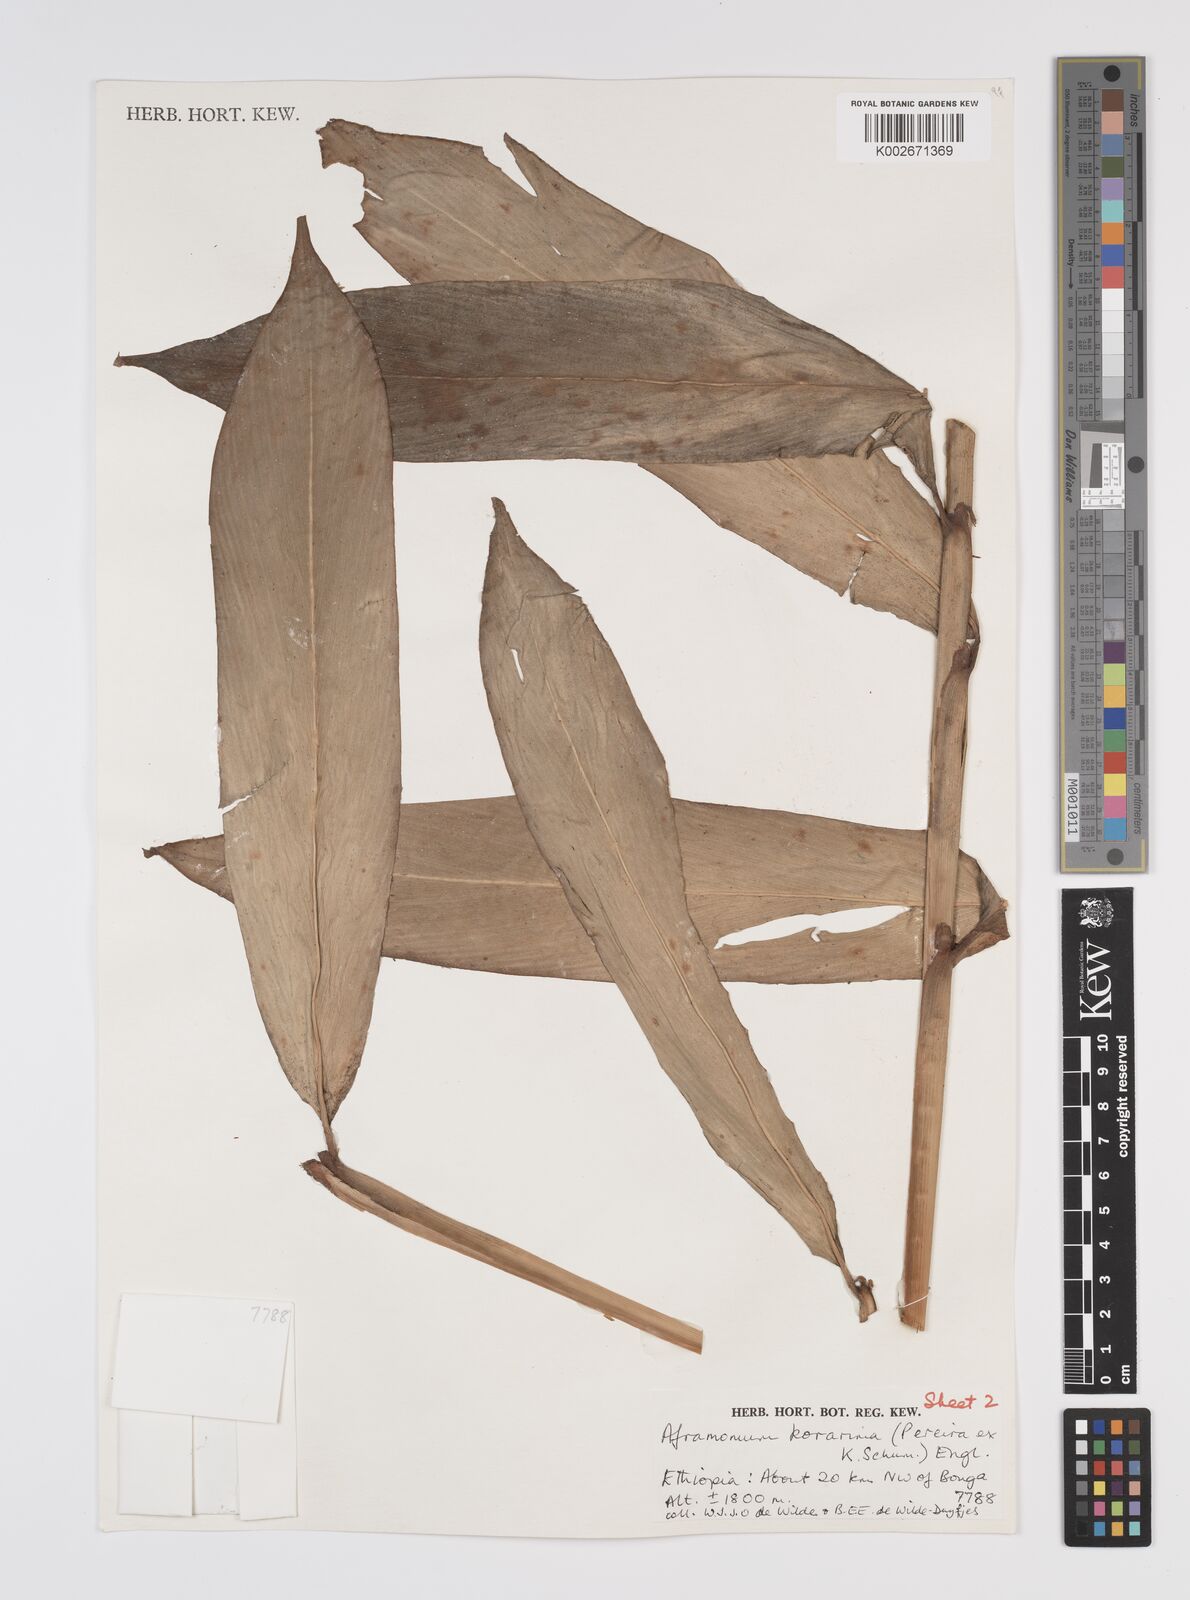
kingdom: Plantae
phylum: Tracheophyta
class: Liliopsida
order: Zingiberales
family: Zingiberaceae
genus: Aframomum
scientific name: Aframomum corrorima
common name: Ethiopian cardamom
